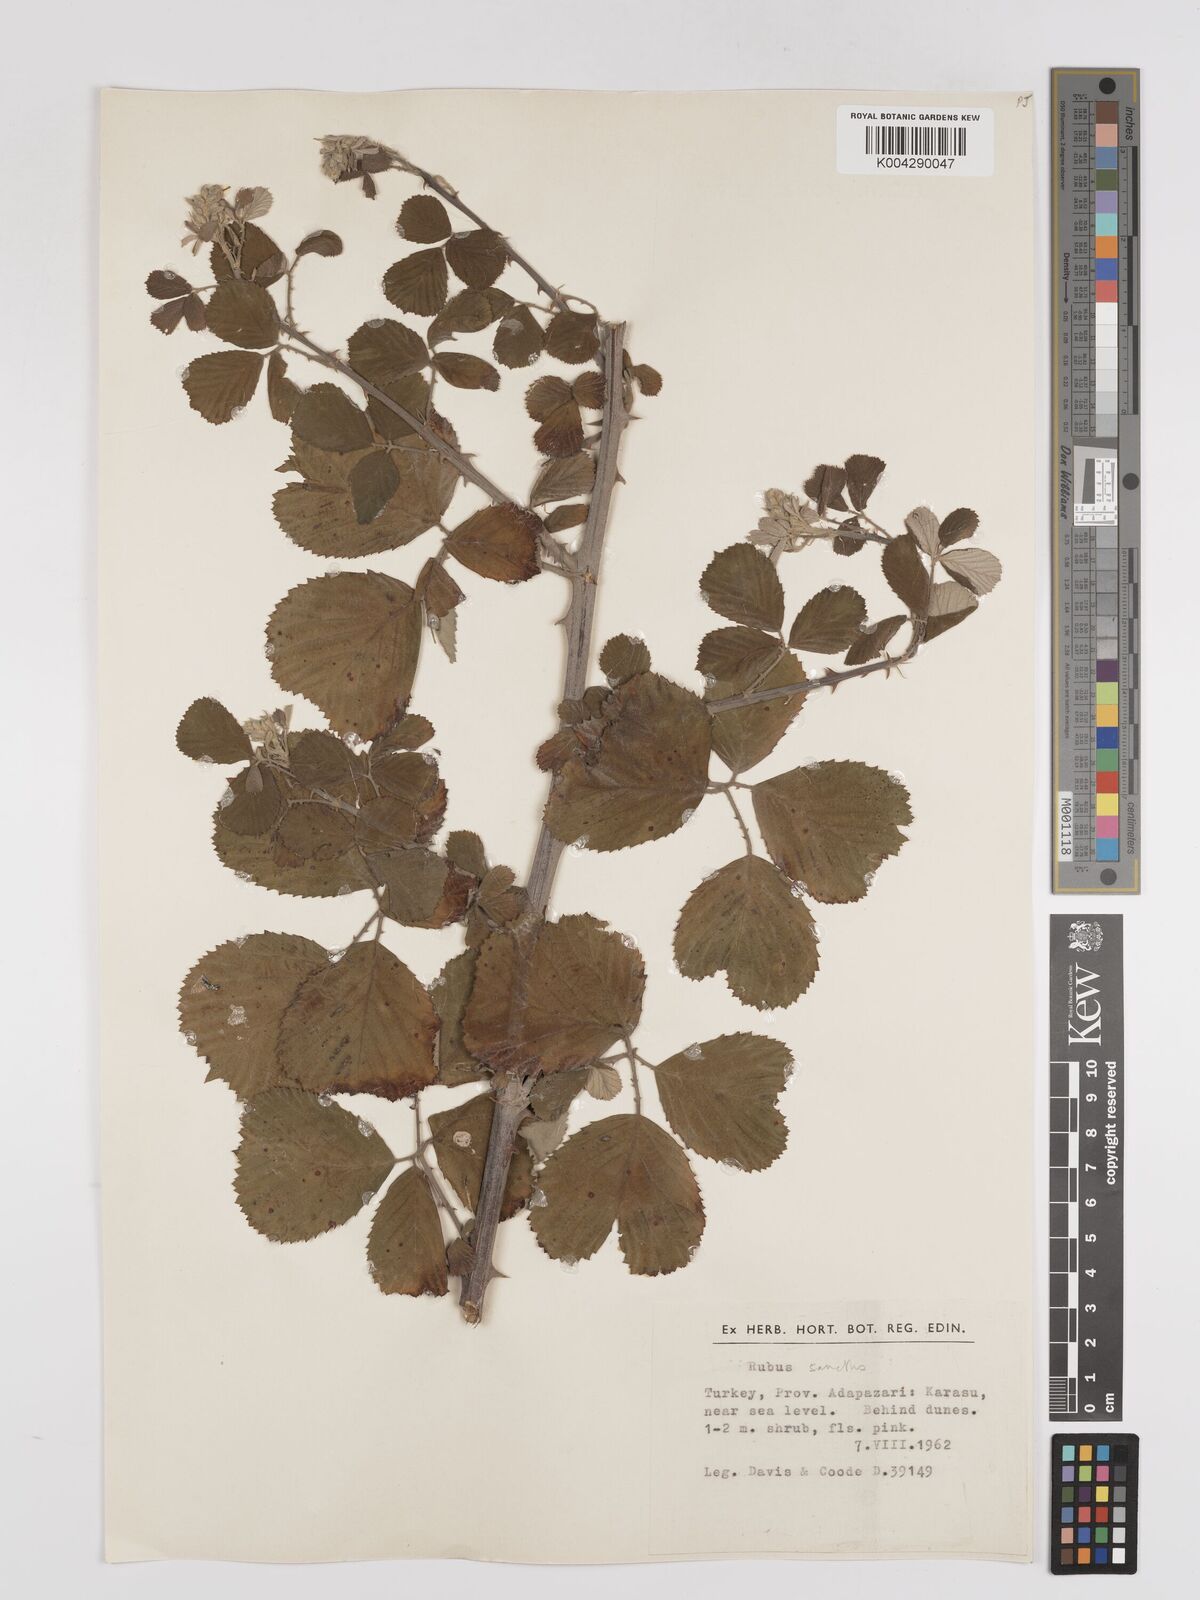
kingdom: Plantae
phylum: Tracheophyta
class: Magnoliopsida
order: Rosales
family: Rosaceae
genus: Rubus
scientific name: Rubus sanctus
